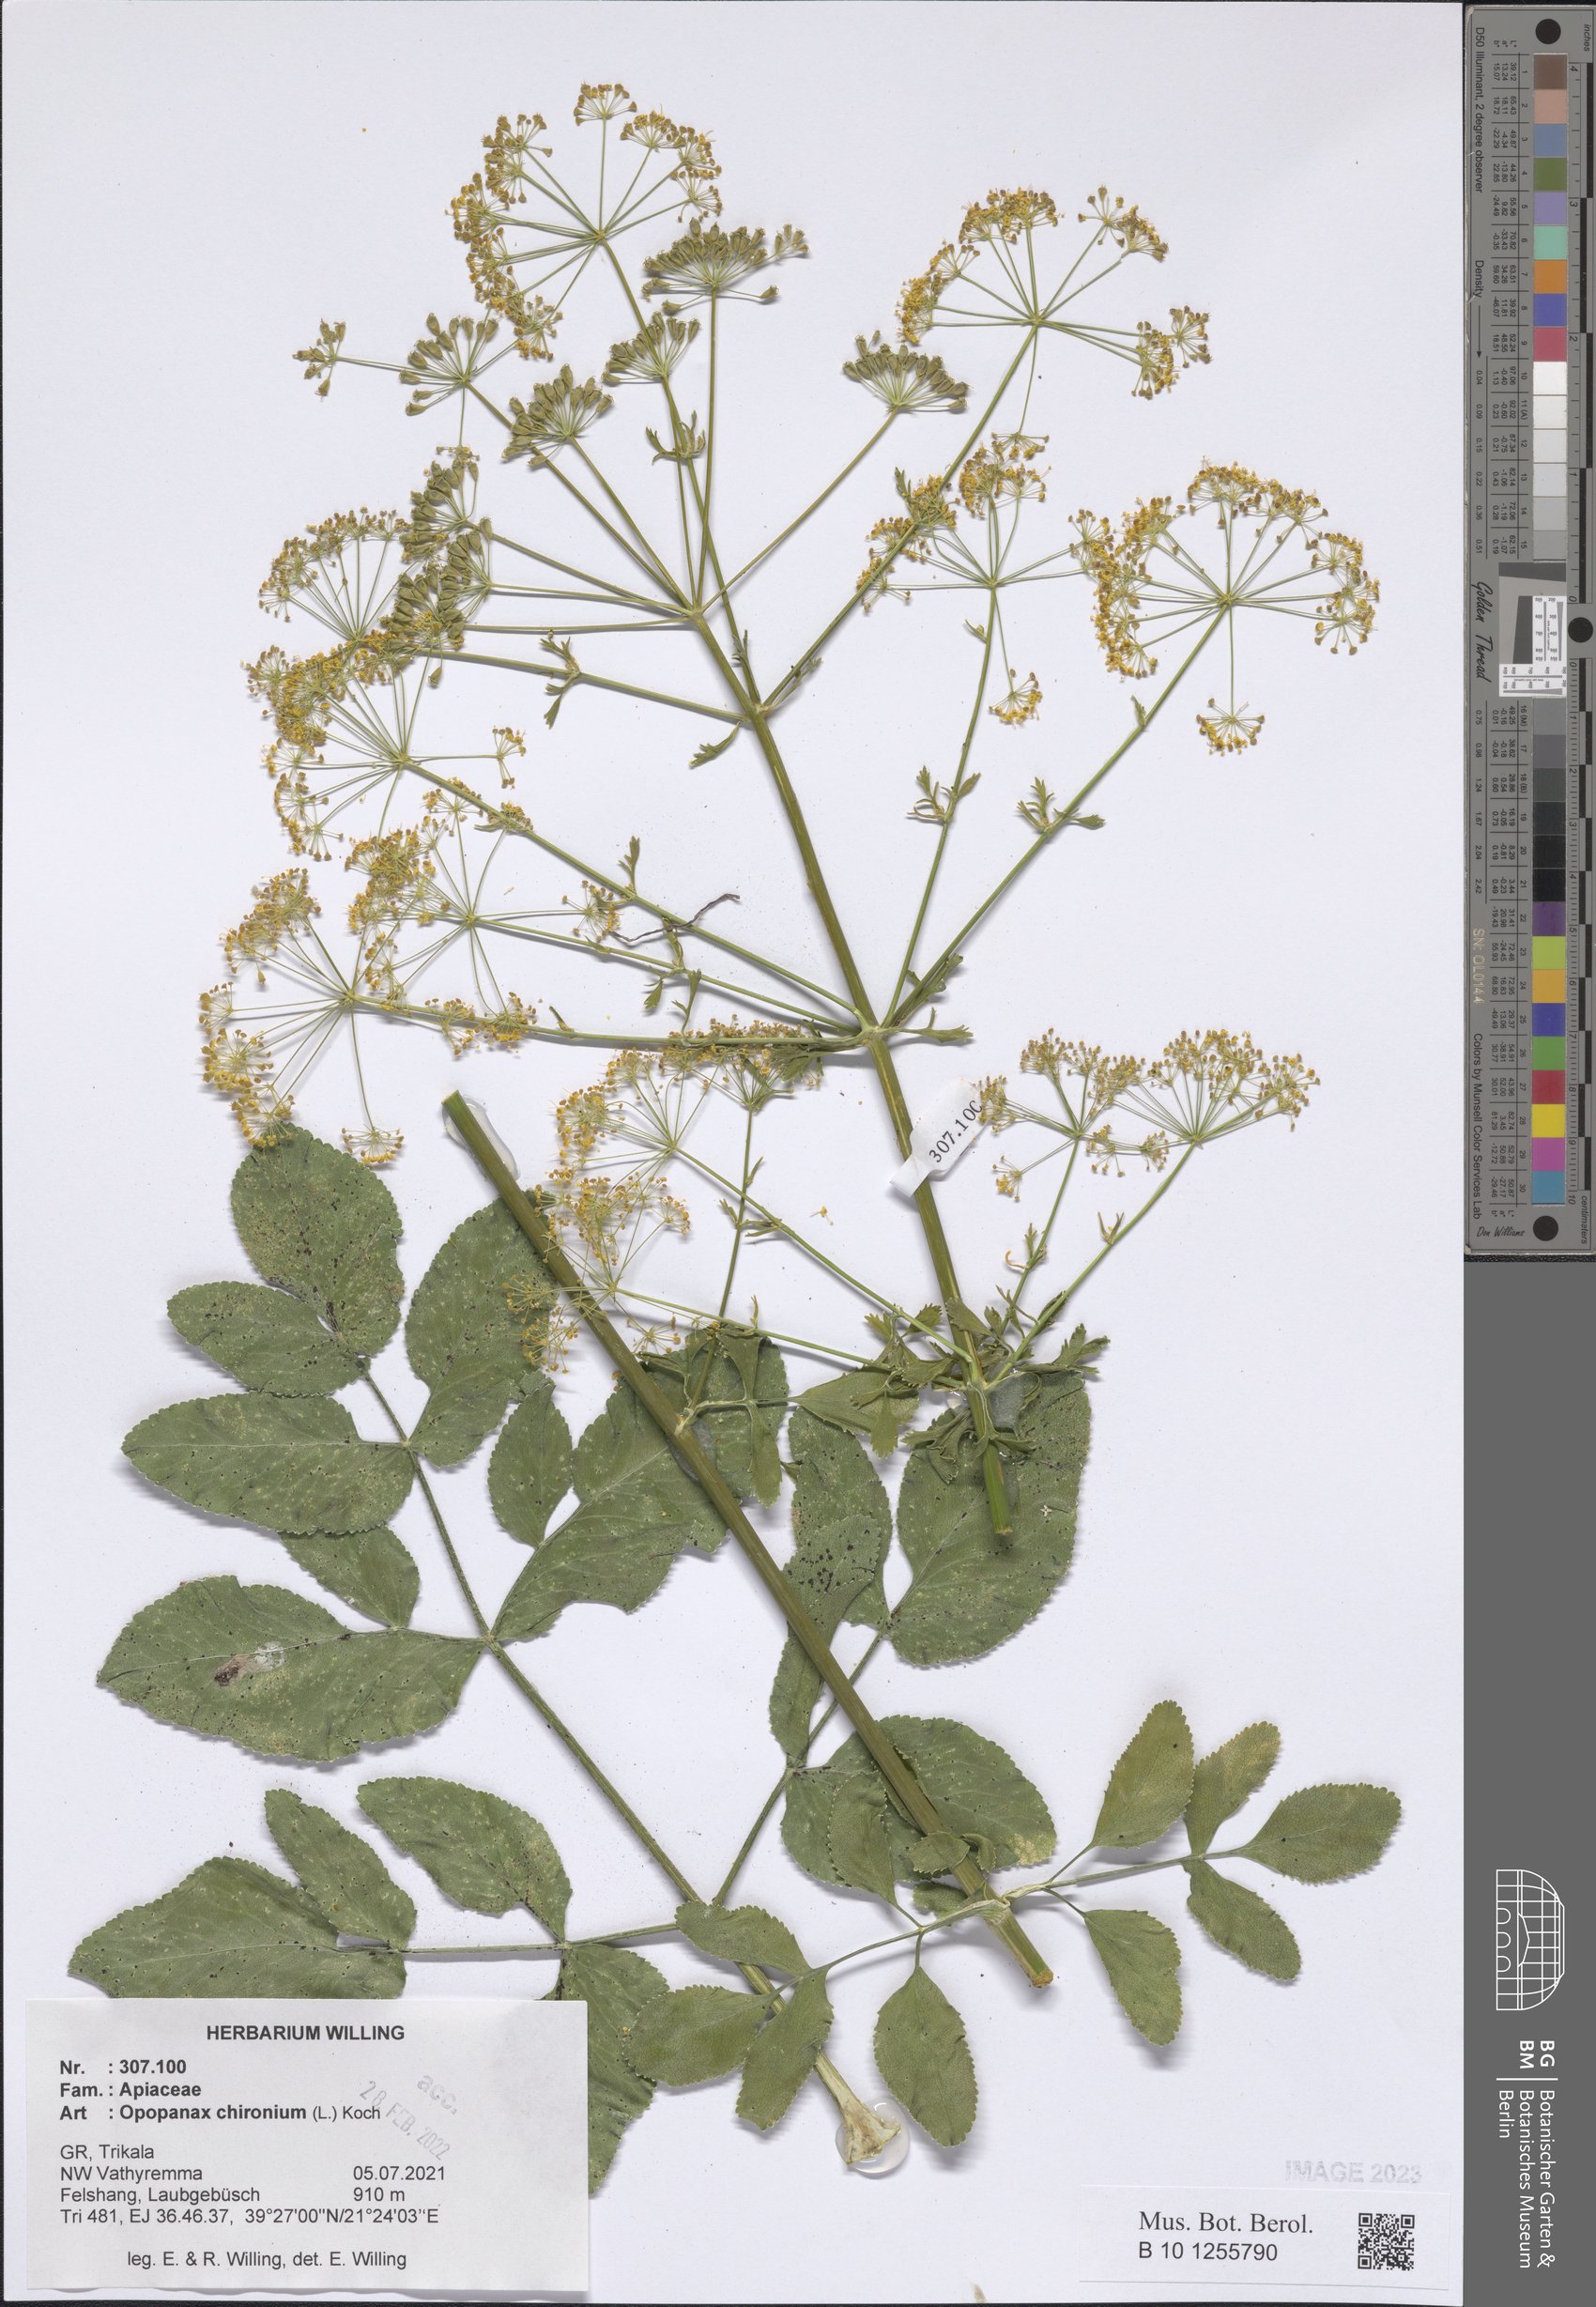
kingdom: Plantae
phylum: Tracheophyta
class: Magnoliopsida
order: Apiales
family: Apiaceae
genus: Opopanax
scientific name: Opopanax chironium
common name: Hercules-all-heal
